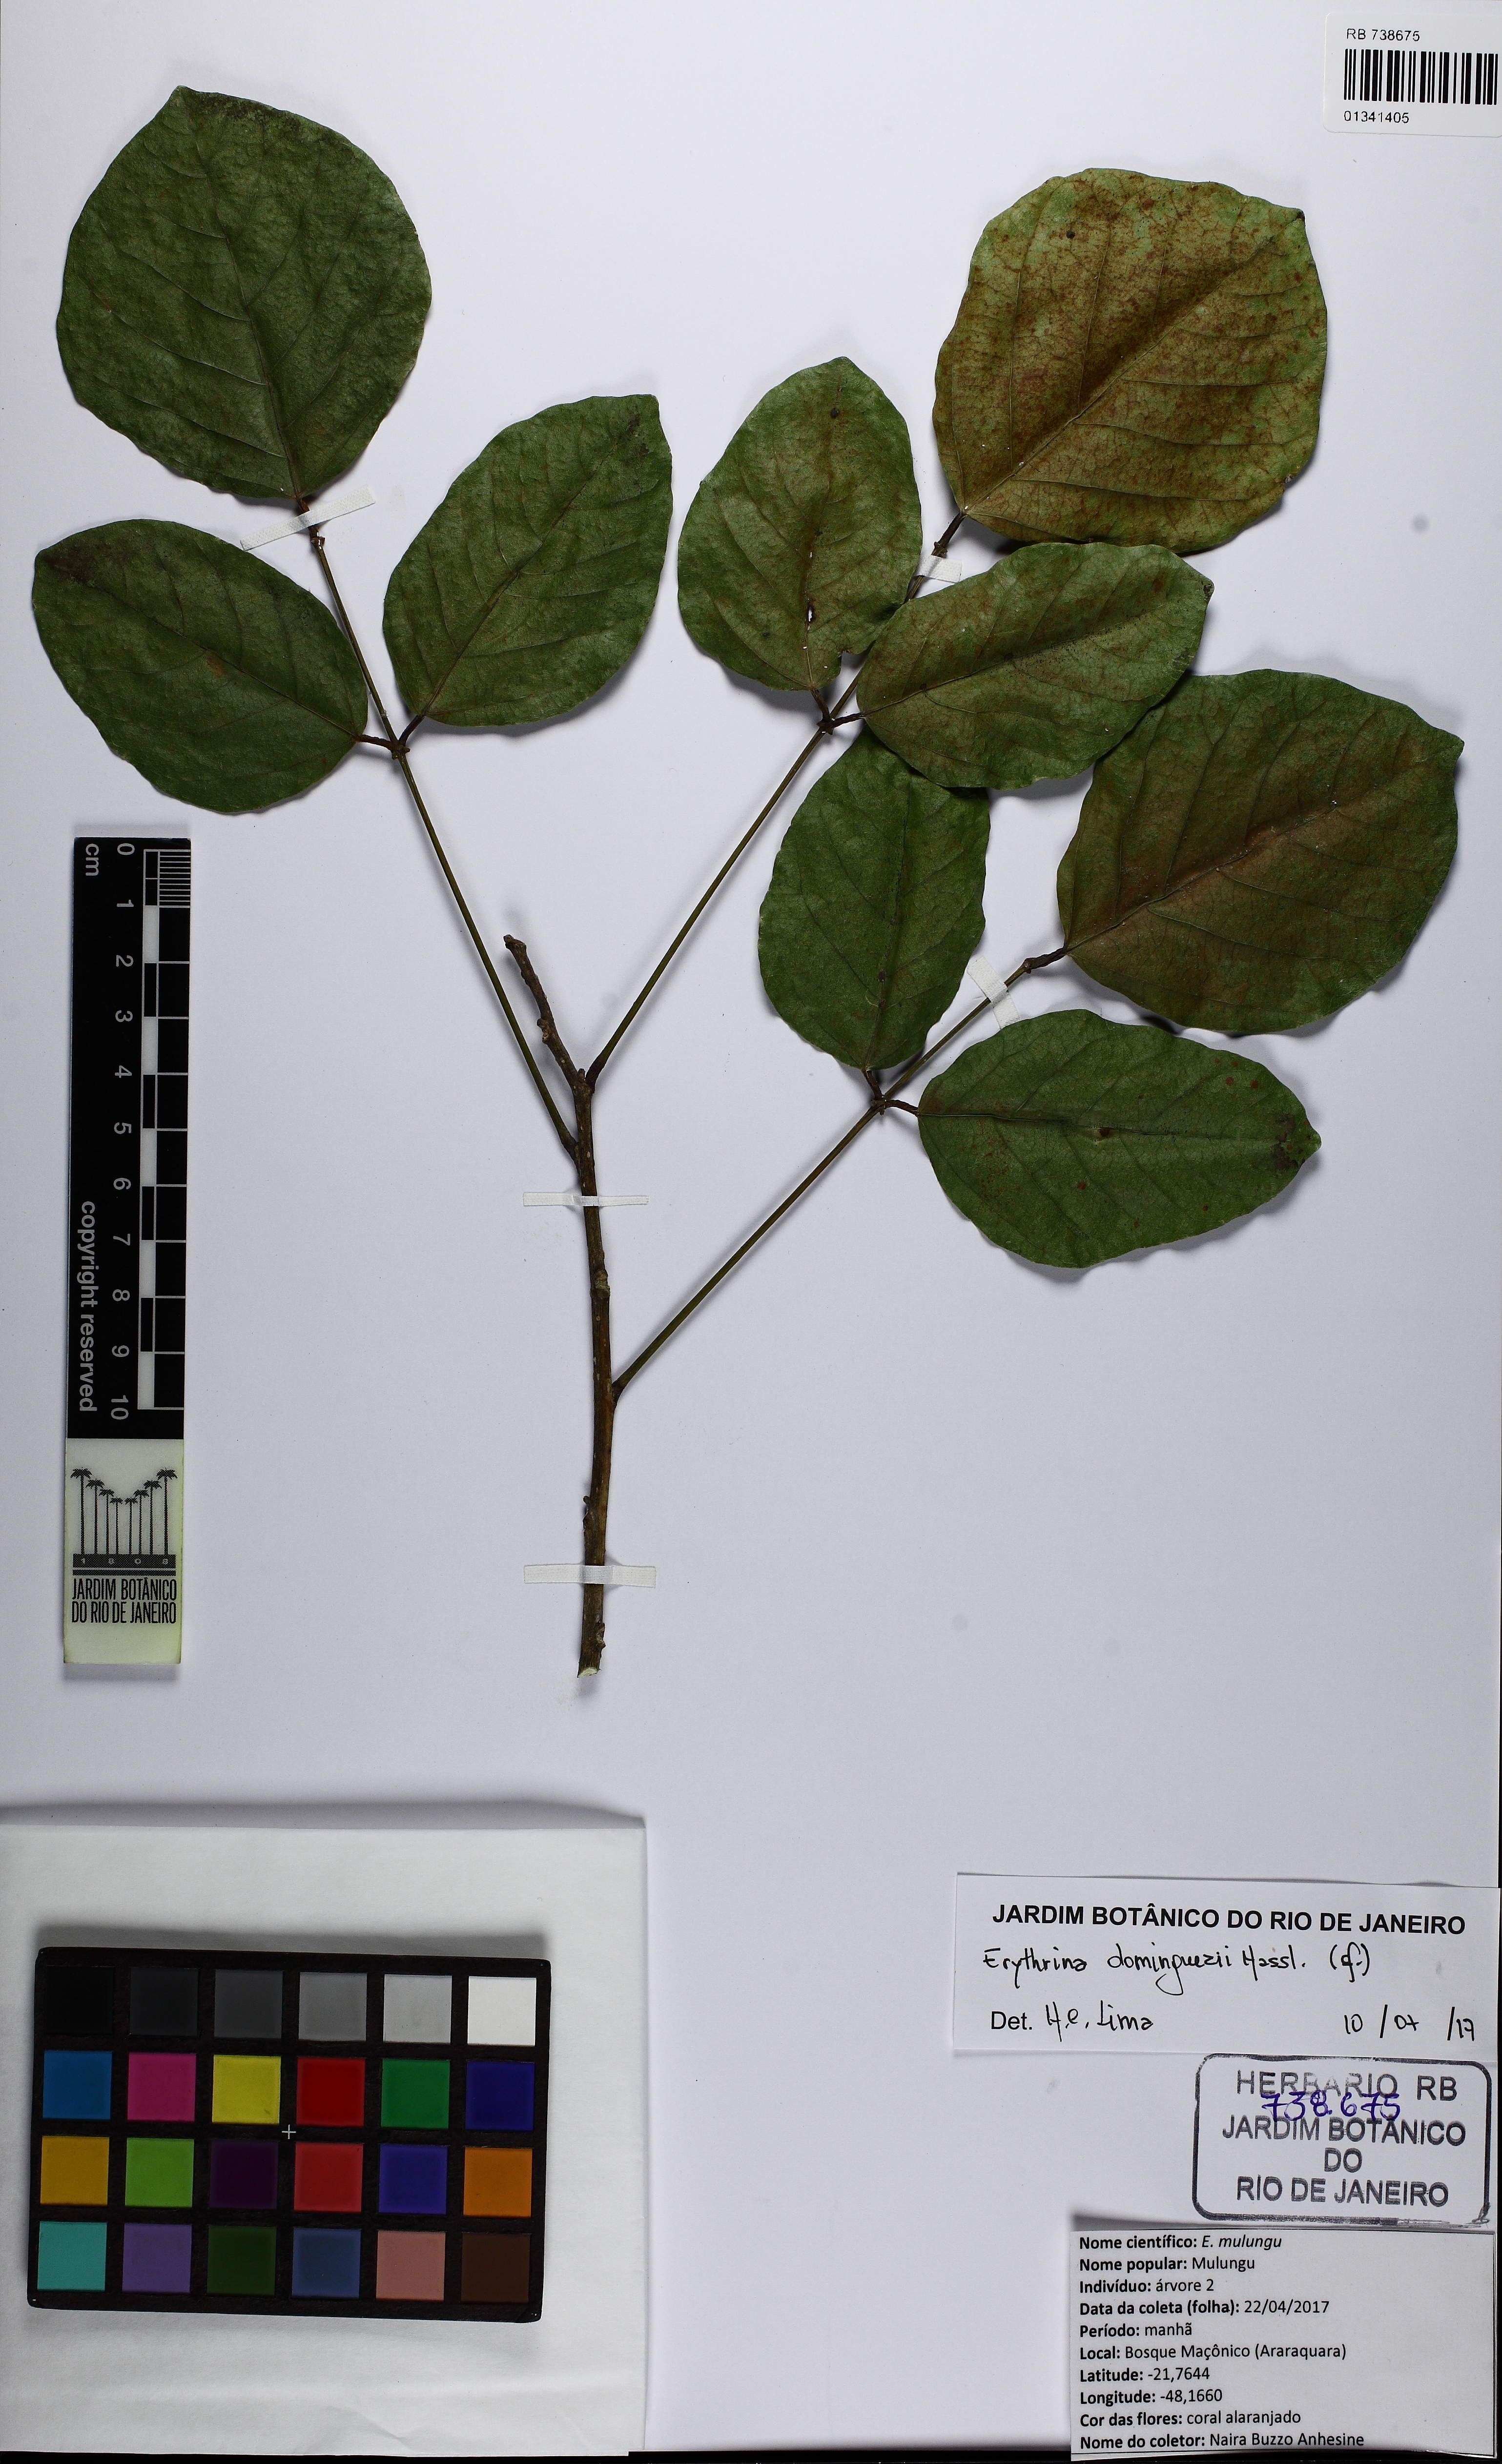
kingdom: Plantae
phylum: Tracheophyta
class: Magnoliopsida
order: Fabales
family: Fabaceae
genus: Erythrina
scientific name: Erythrina mulungu
